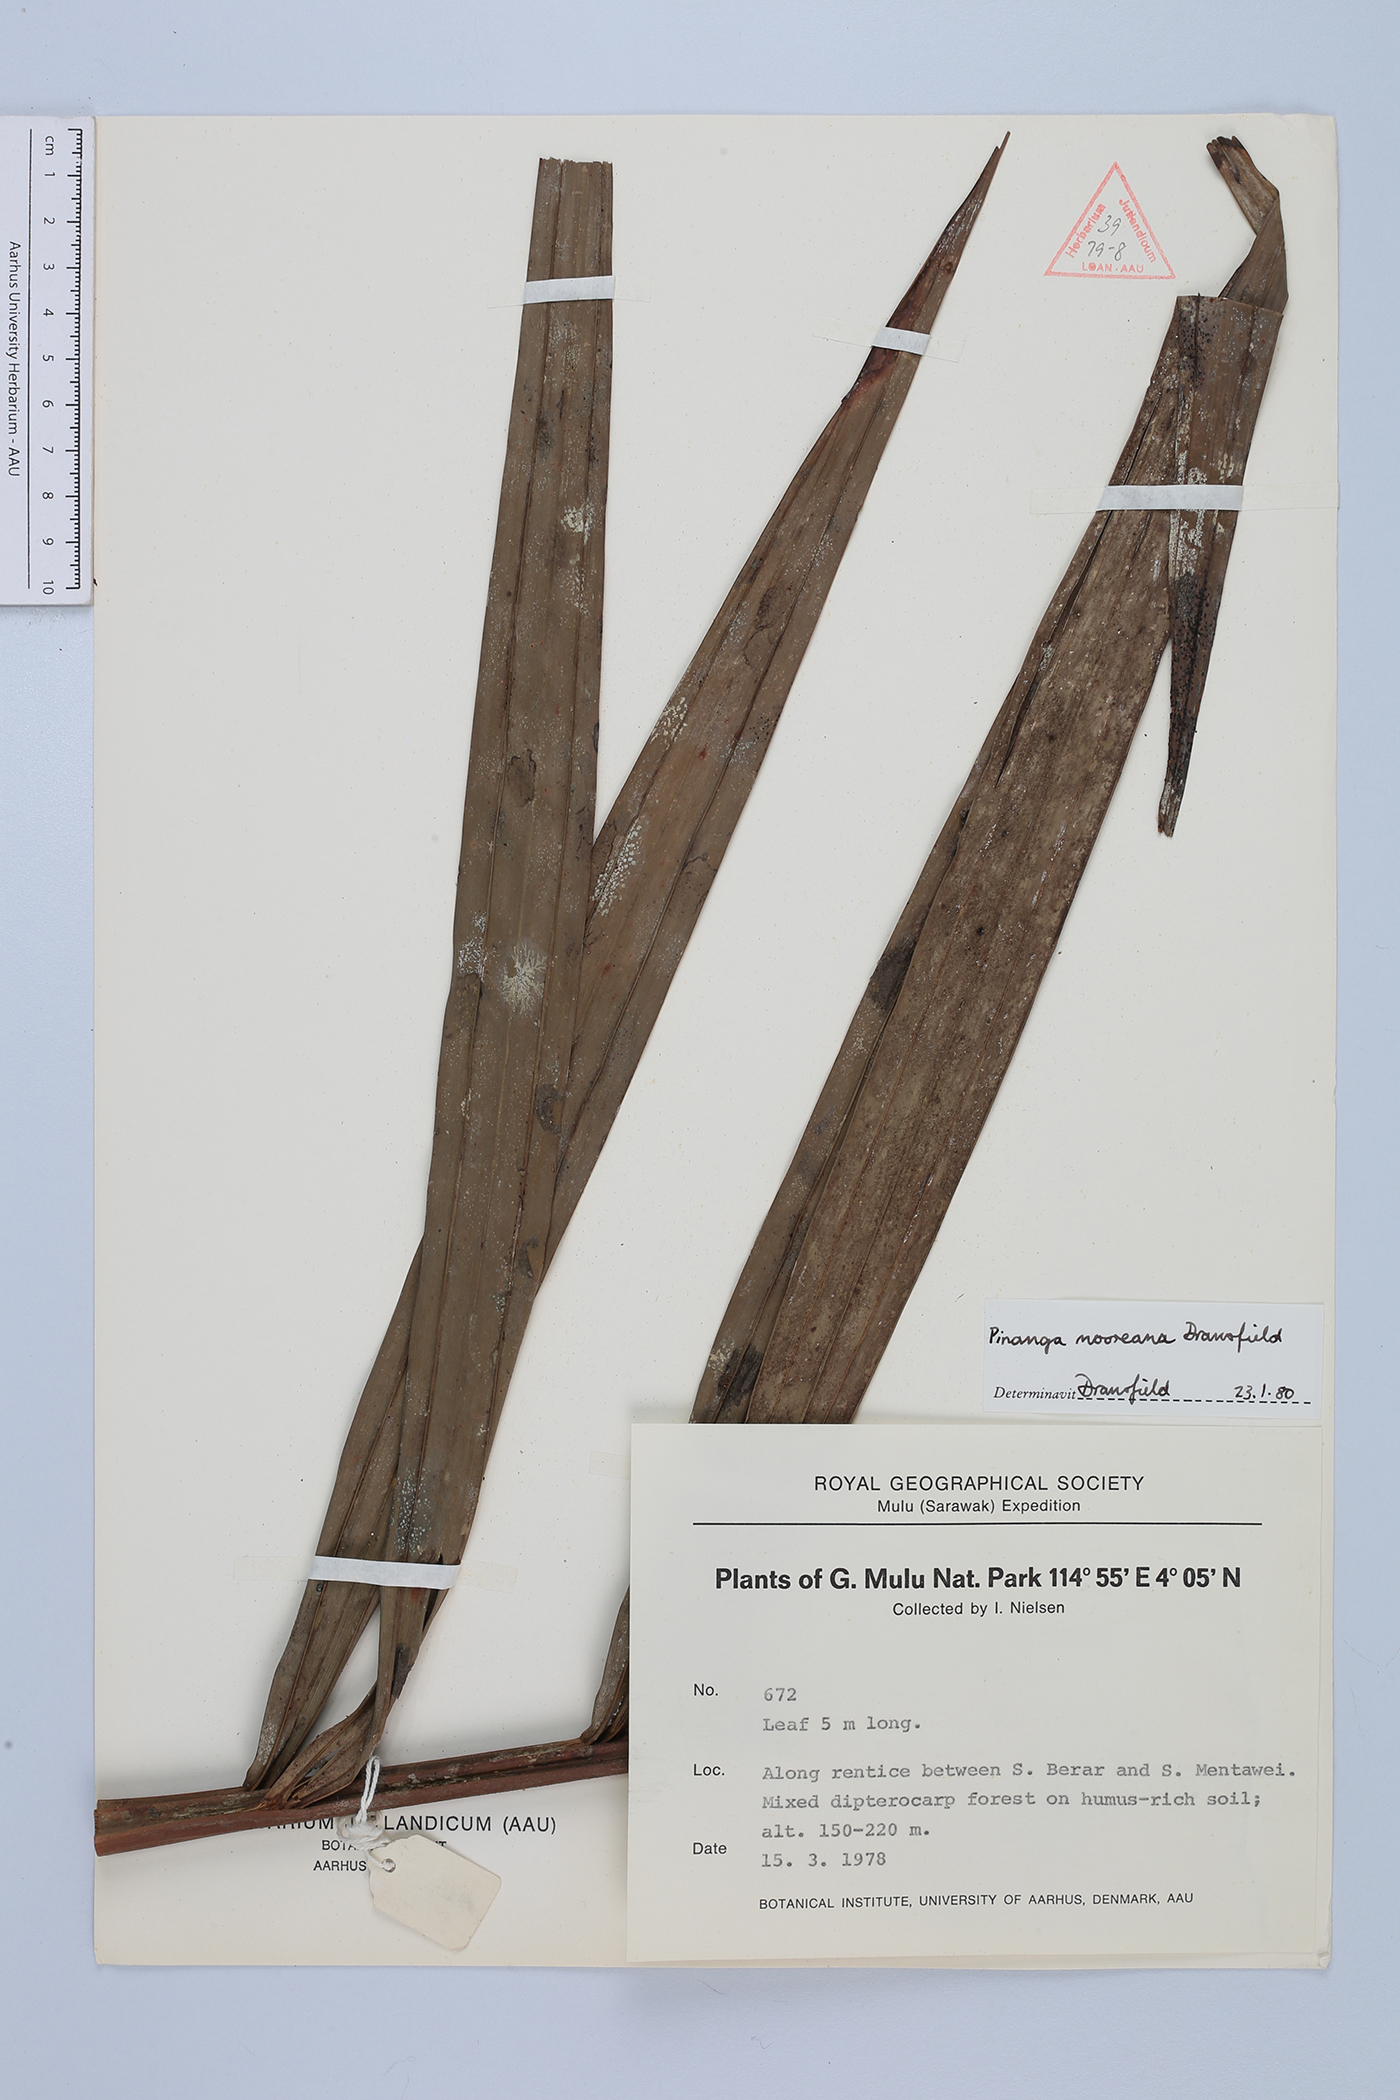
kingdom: Plantae
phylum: Tracheophyta
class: Liliopsida
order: Arecales
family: Arecaceae
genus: Pinanga
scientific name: Pinanga mooreana
